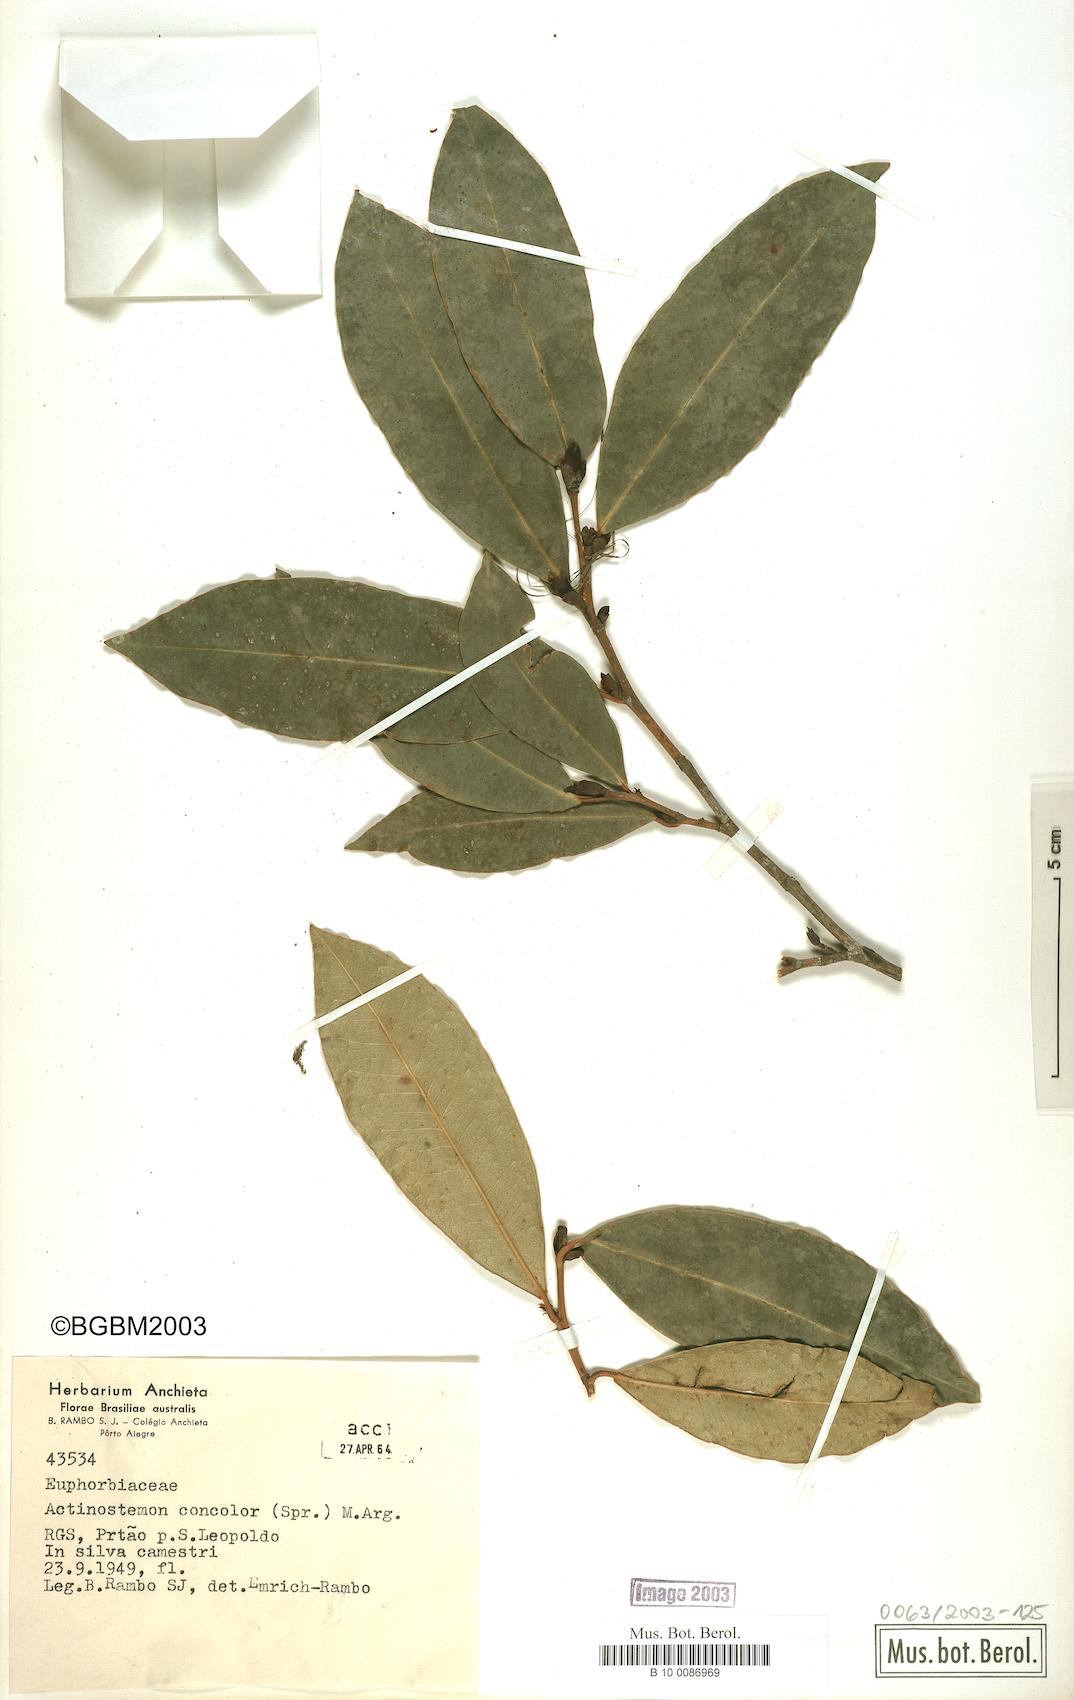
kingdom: Plantae
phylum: Tracheophyta
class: Magnoliopsida
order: Malpighiales
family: Euphorbiaceae
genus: Actinostemon
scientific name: Actinostemon concolor
